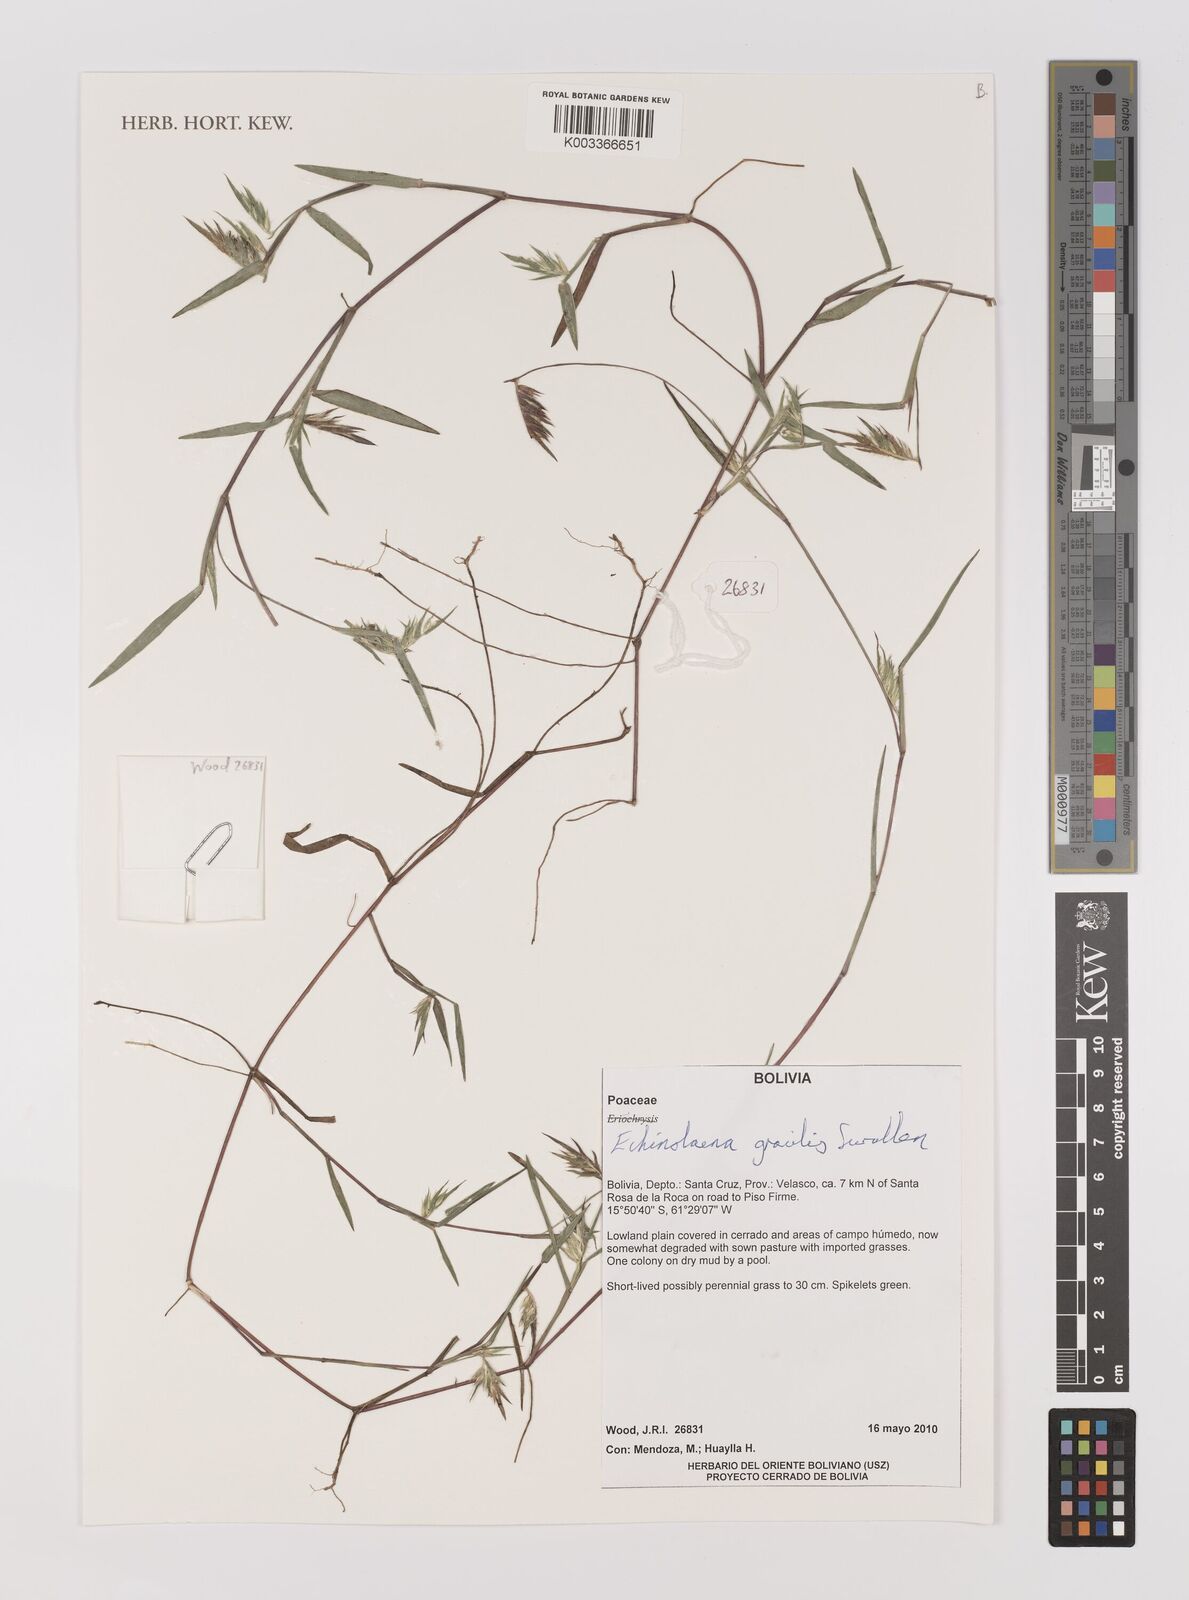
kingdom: Plantae
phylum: Tracheophyta
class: Liliopsida
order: Poales
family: Poaceae
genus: Echinolaena
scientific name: Echinolaena gracilis
